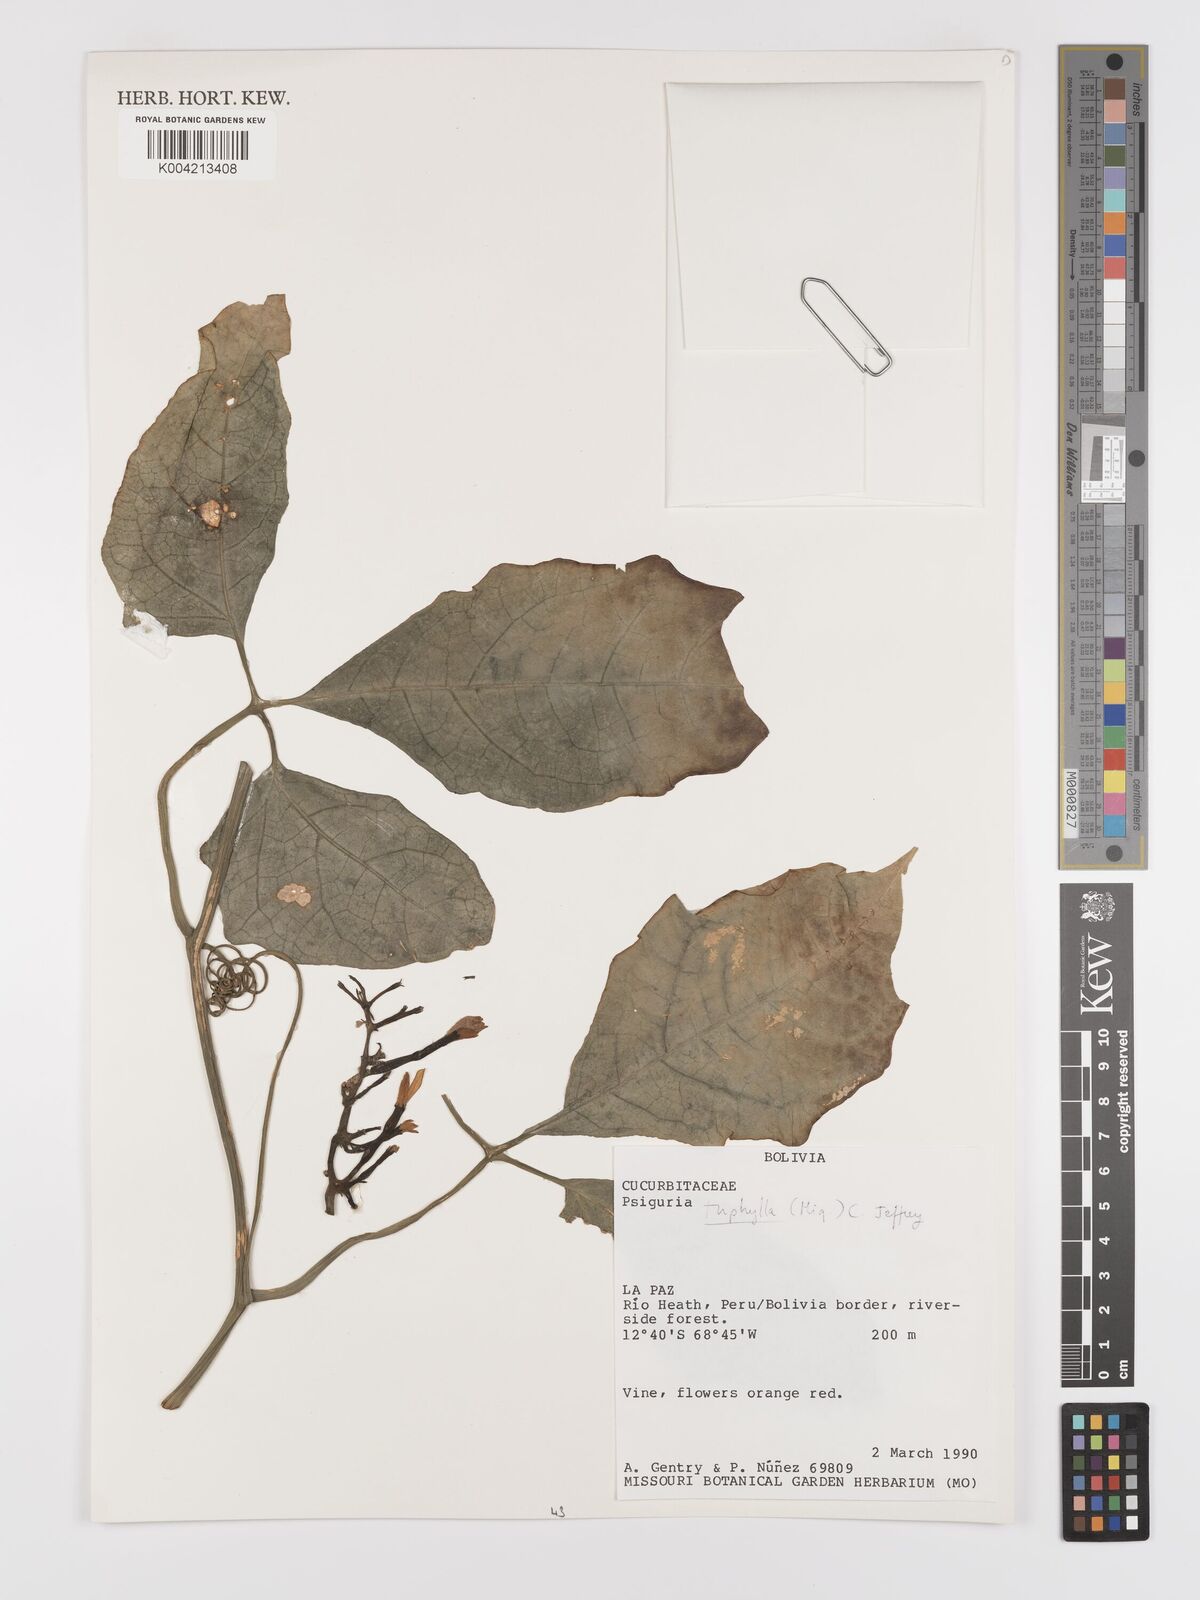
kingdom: Plantae
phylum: Tracheophyta
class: Magnoliopsida
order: Cucurbitales
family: Cucurbitaceae
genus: Psiguria
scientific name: Psiguria triphylla
